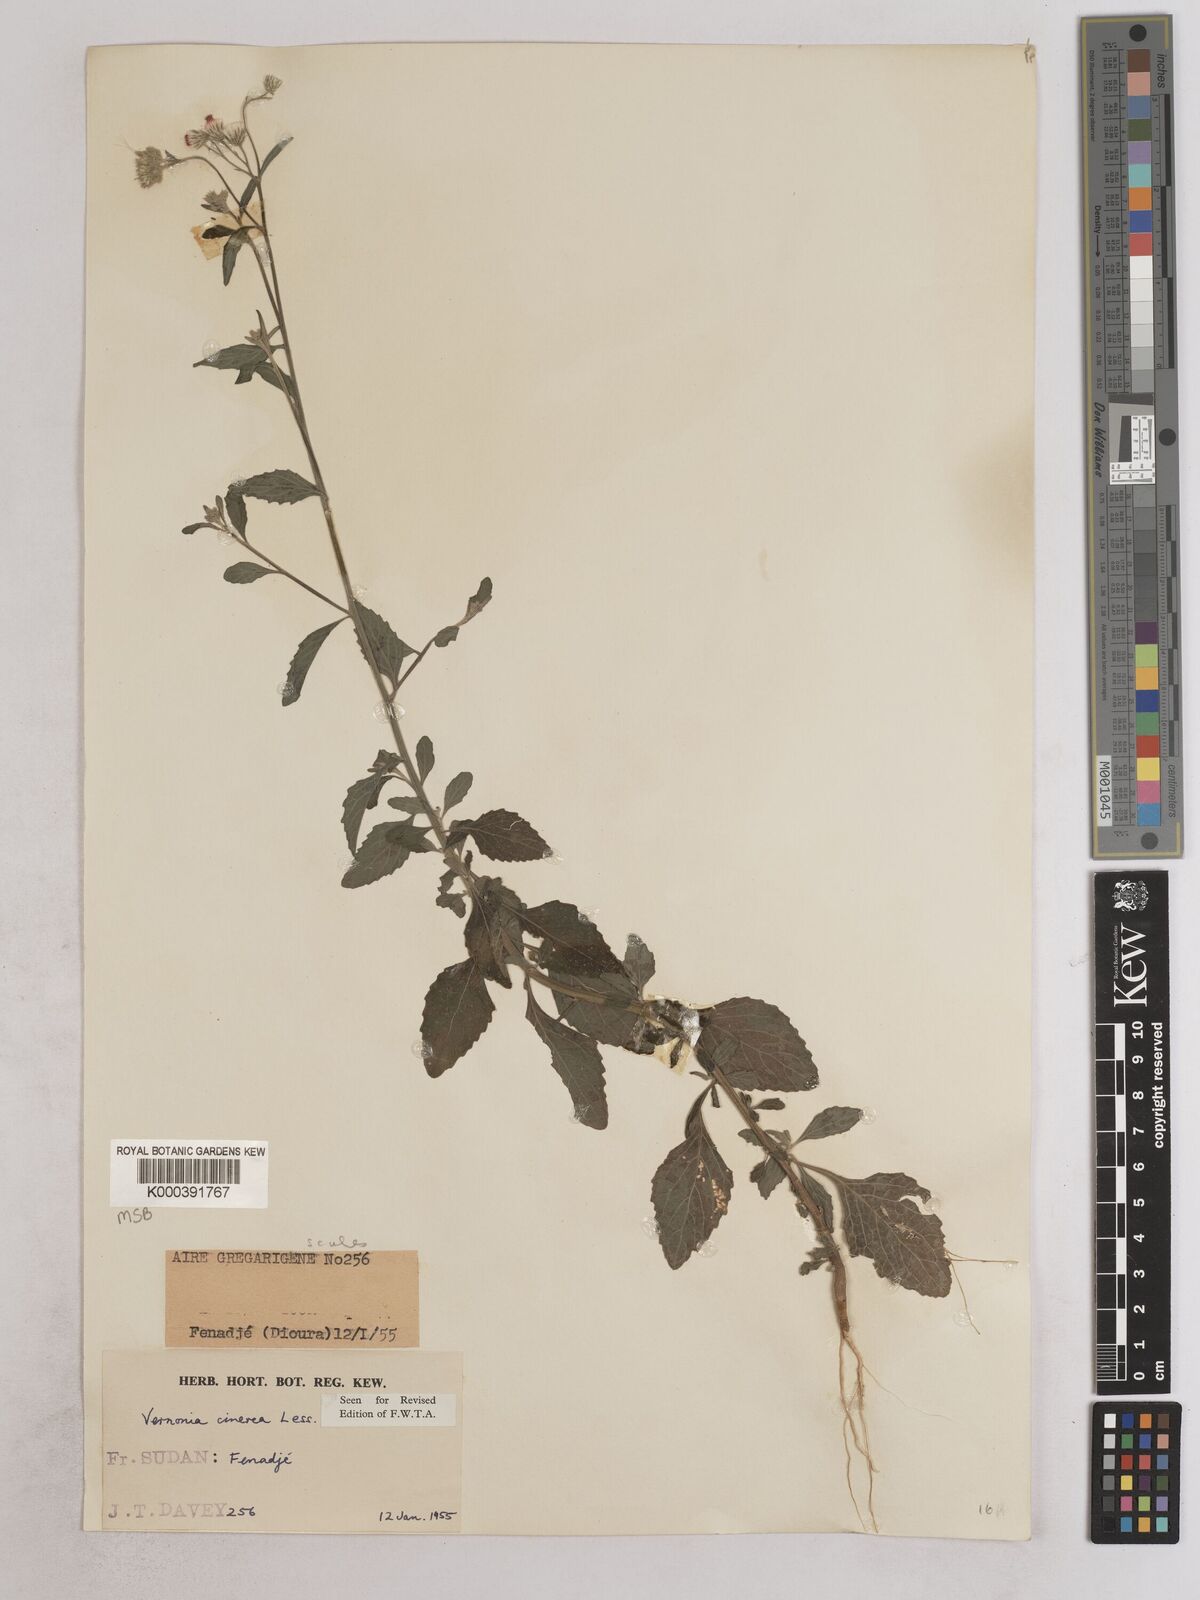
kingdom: Plantae
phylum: Tracheophyta
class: Magnoliopsida
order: Asterales
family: Asteraceae
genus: Cyanthillium
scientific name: Cyanthillium cinereum
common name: Little ironweed
